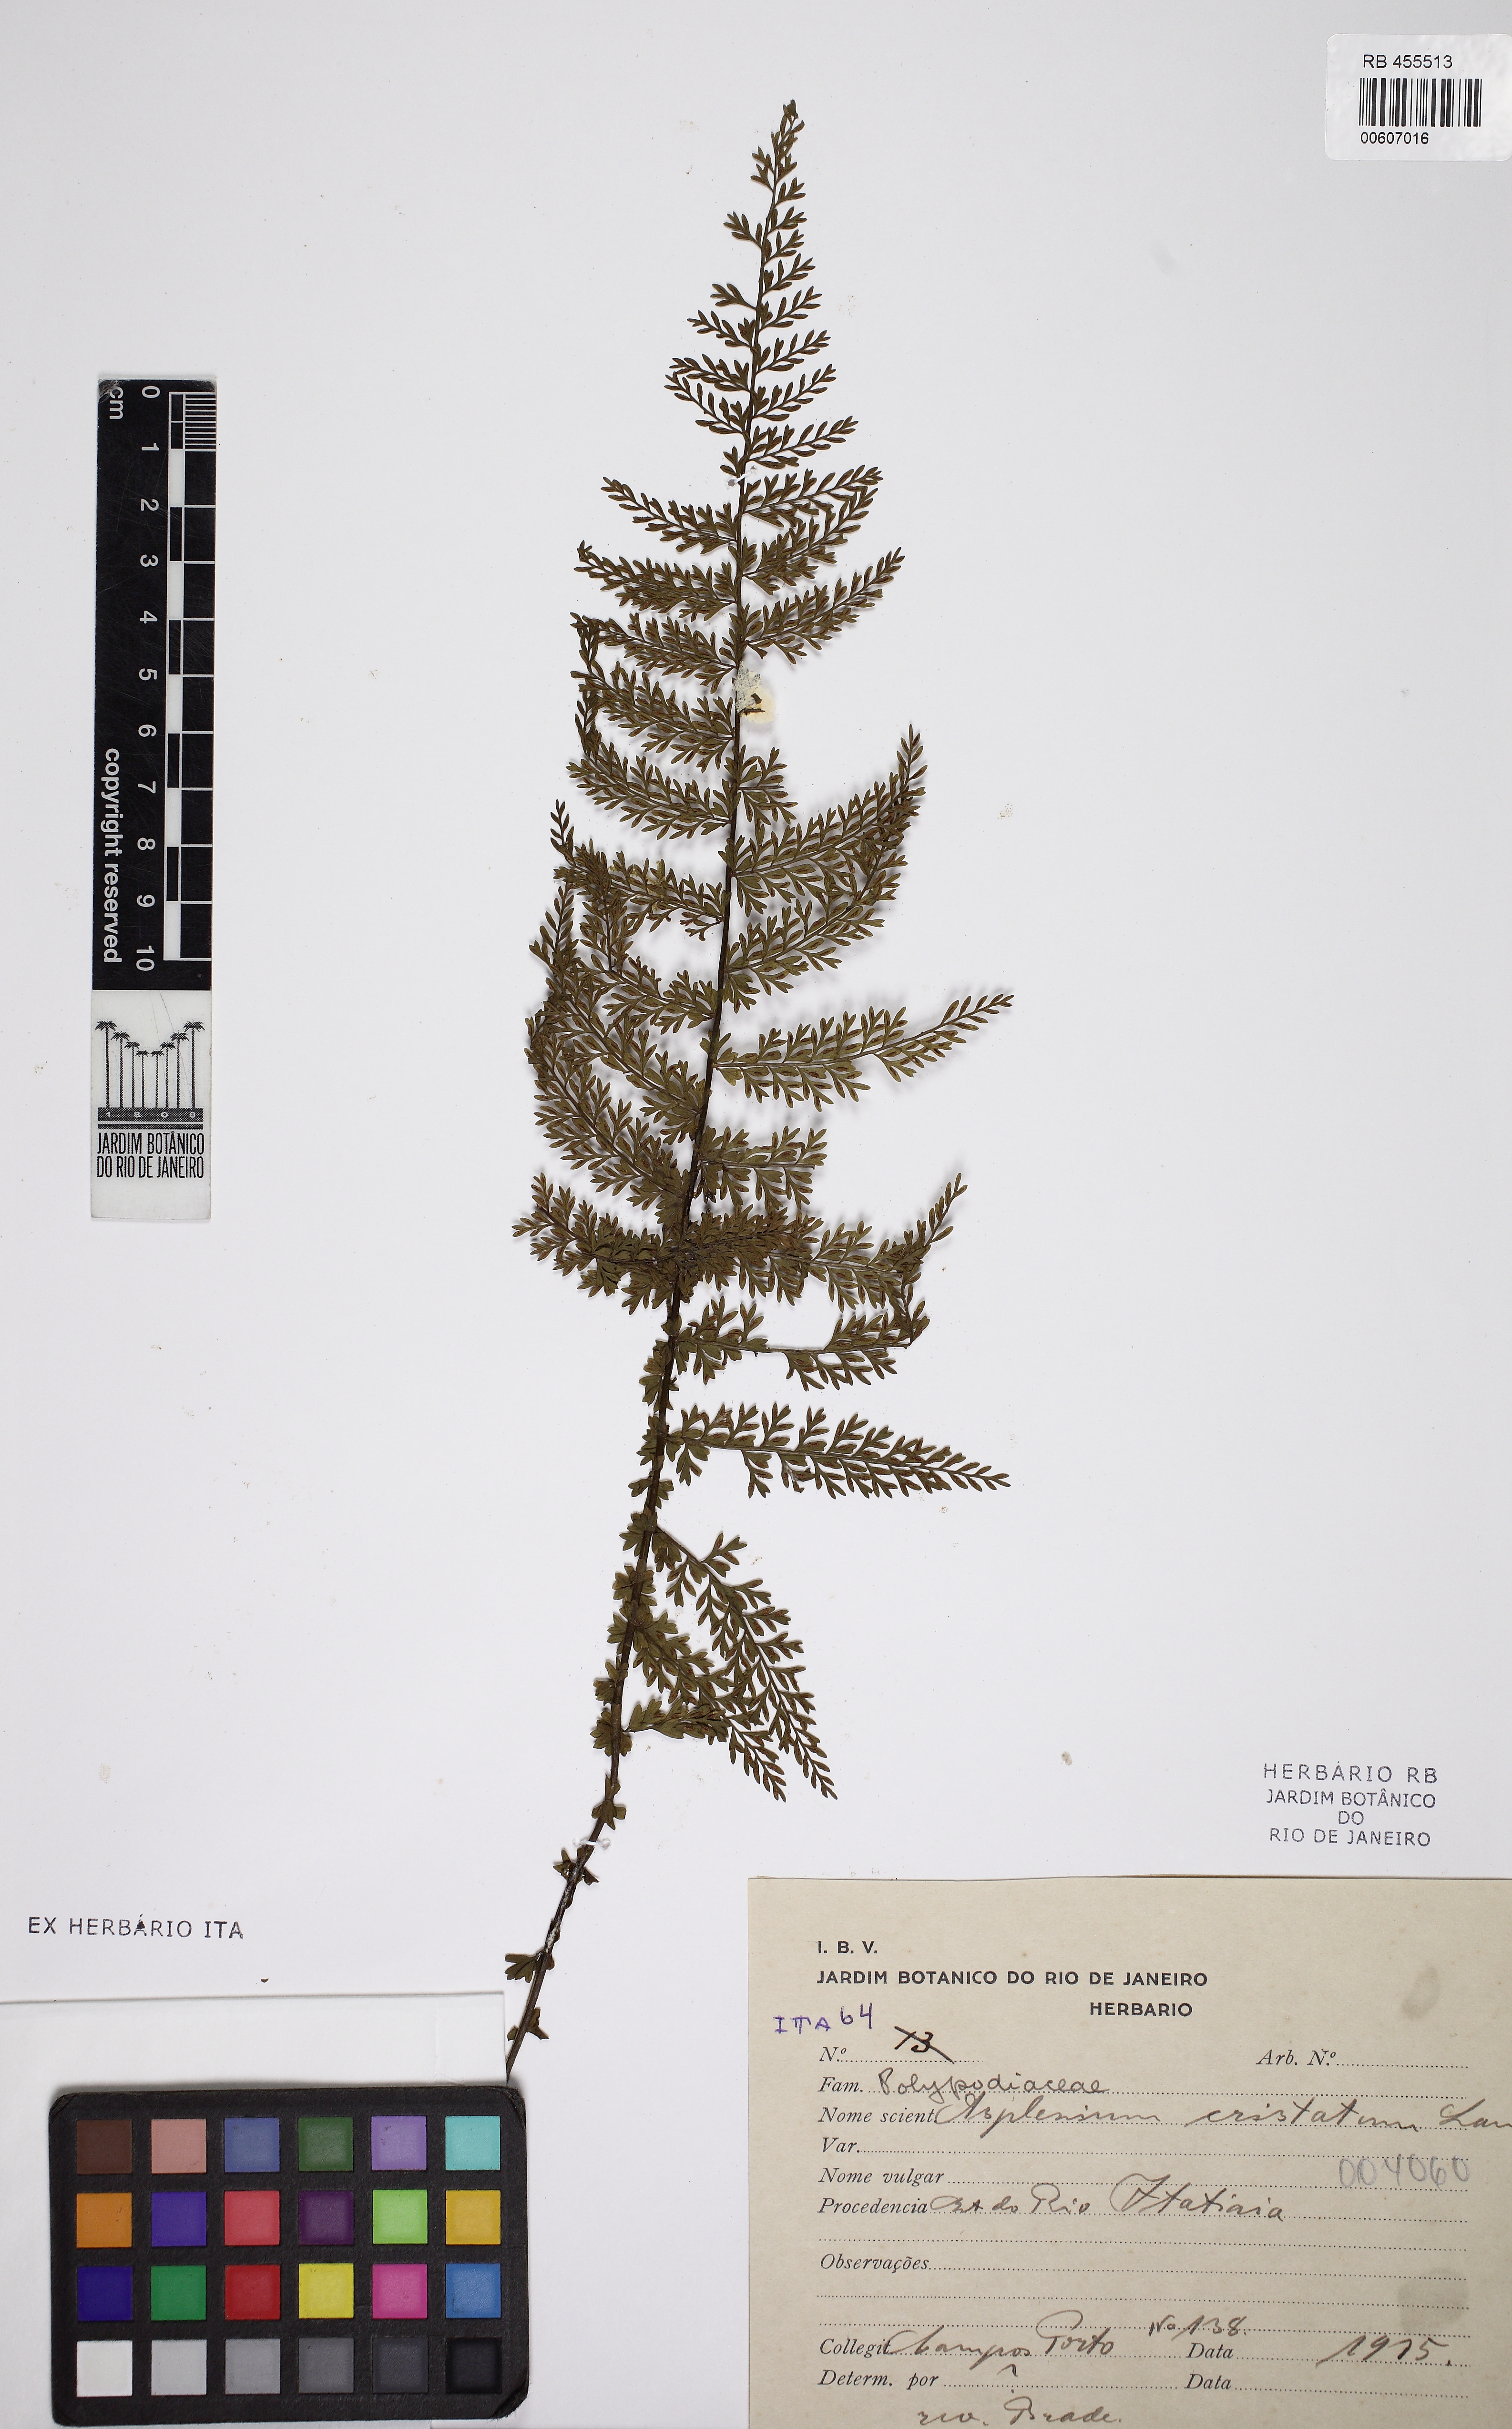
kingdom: Plantae
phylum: Tracheophyta
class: Polypodiopsida
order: Polypodiales
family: Aspleniaceae
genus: Asplenium
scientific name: Asplenium cristatum
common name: Parsley spleenwort
